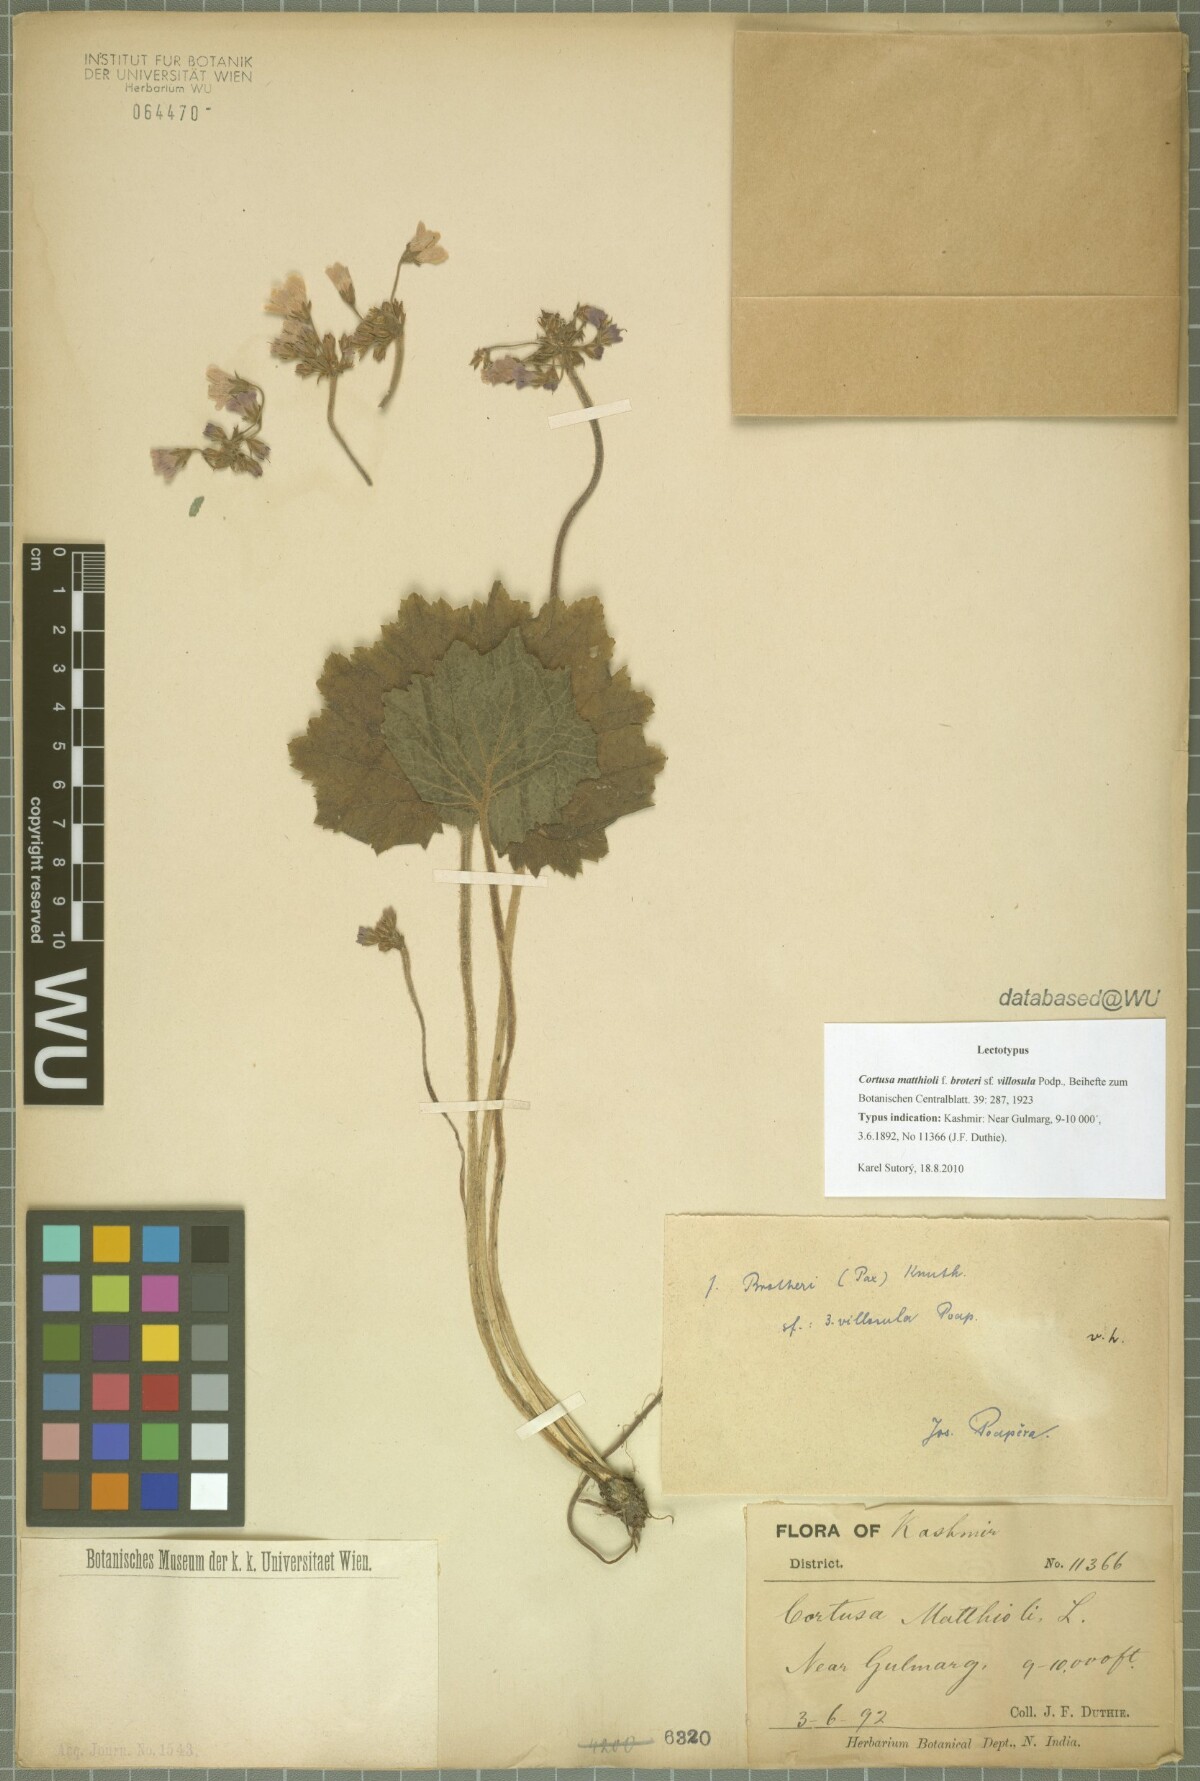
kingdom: Plantae
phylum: Tracheophyta
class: Magnoliopsida
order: Ericales
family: Primulaceae
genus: Primula
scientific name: Primula matthioli
